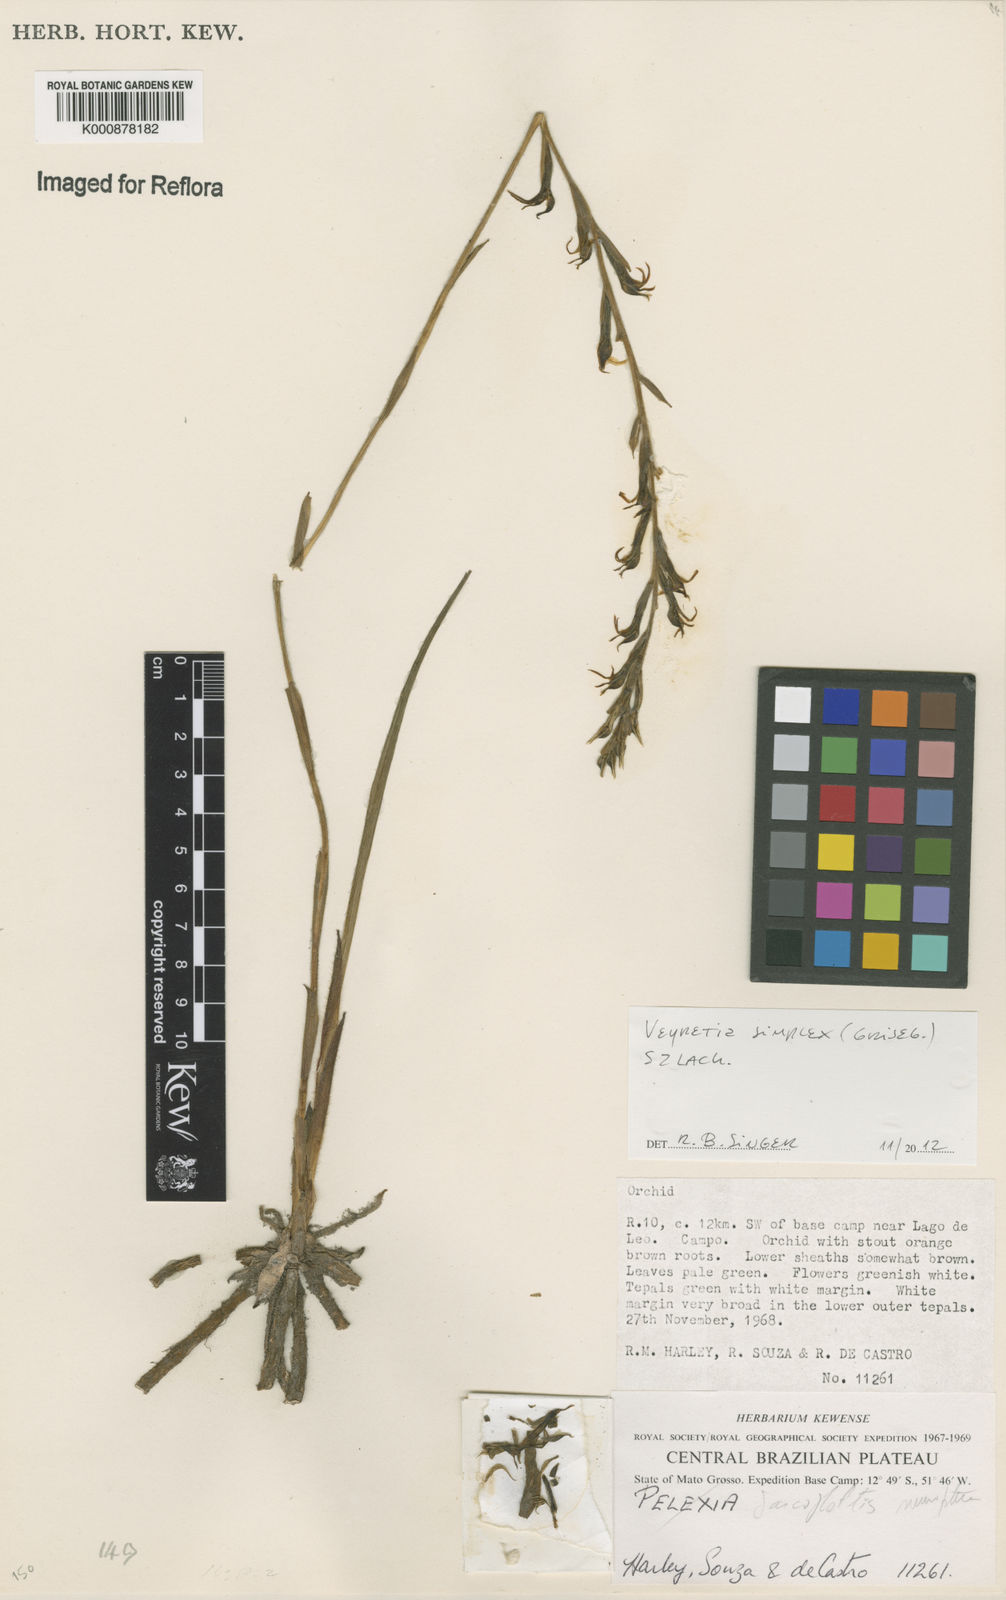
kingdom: Plantae
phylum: Tracheophyta
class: Liliopsida
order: Asparagales
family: Orchidaceae
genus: Veyretia
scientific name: Veyretia simplex
